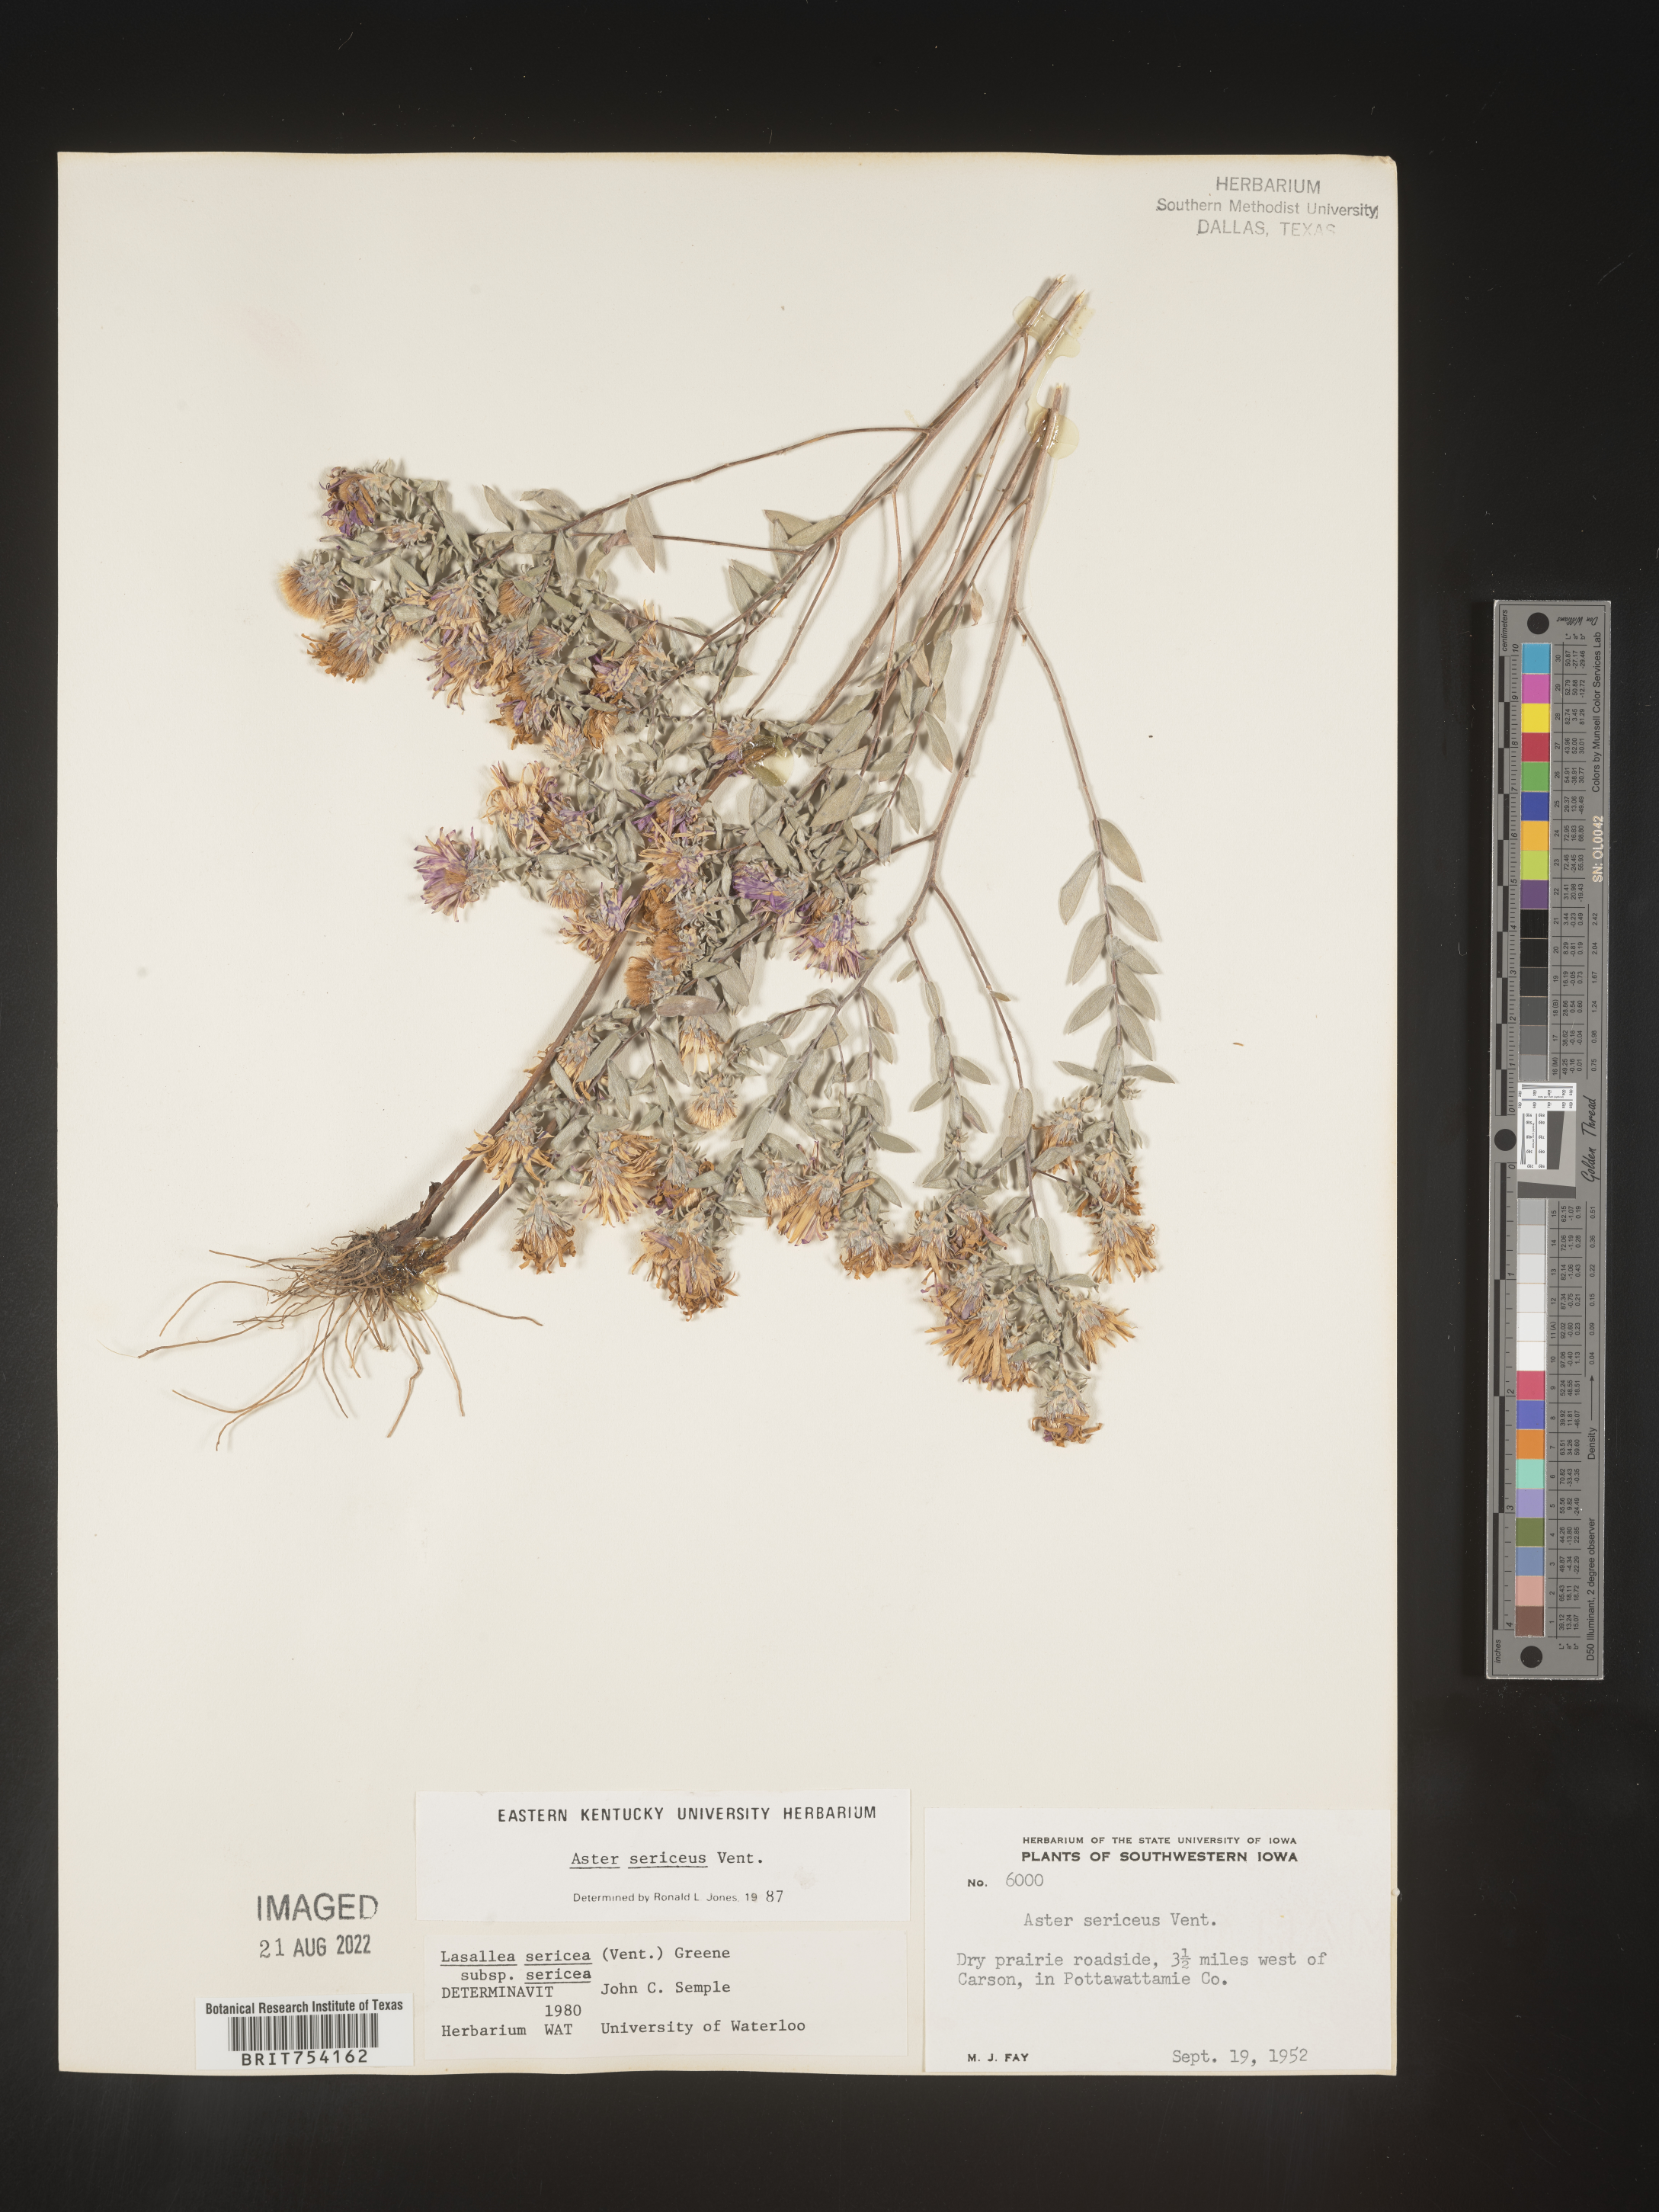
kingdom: Plantae
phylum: Tracheophyta
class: Magnoliopsida
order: Asterales
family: Asteraceae
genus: Symphyotrichum
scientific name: Symphyotrichum sericeum
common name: Silky aster
